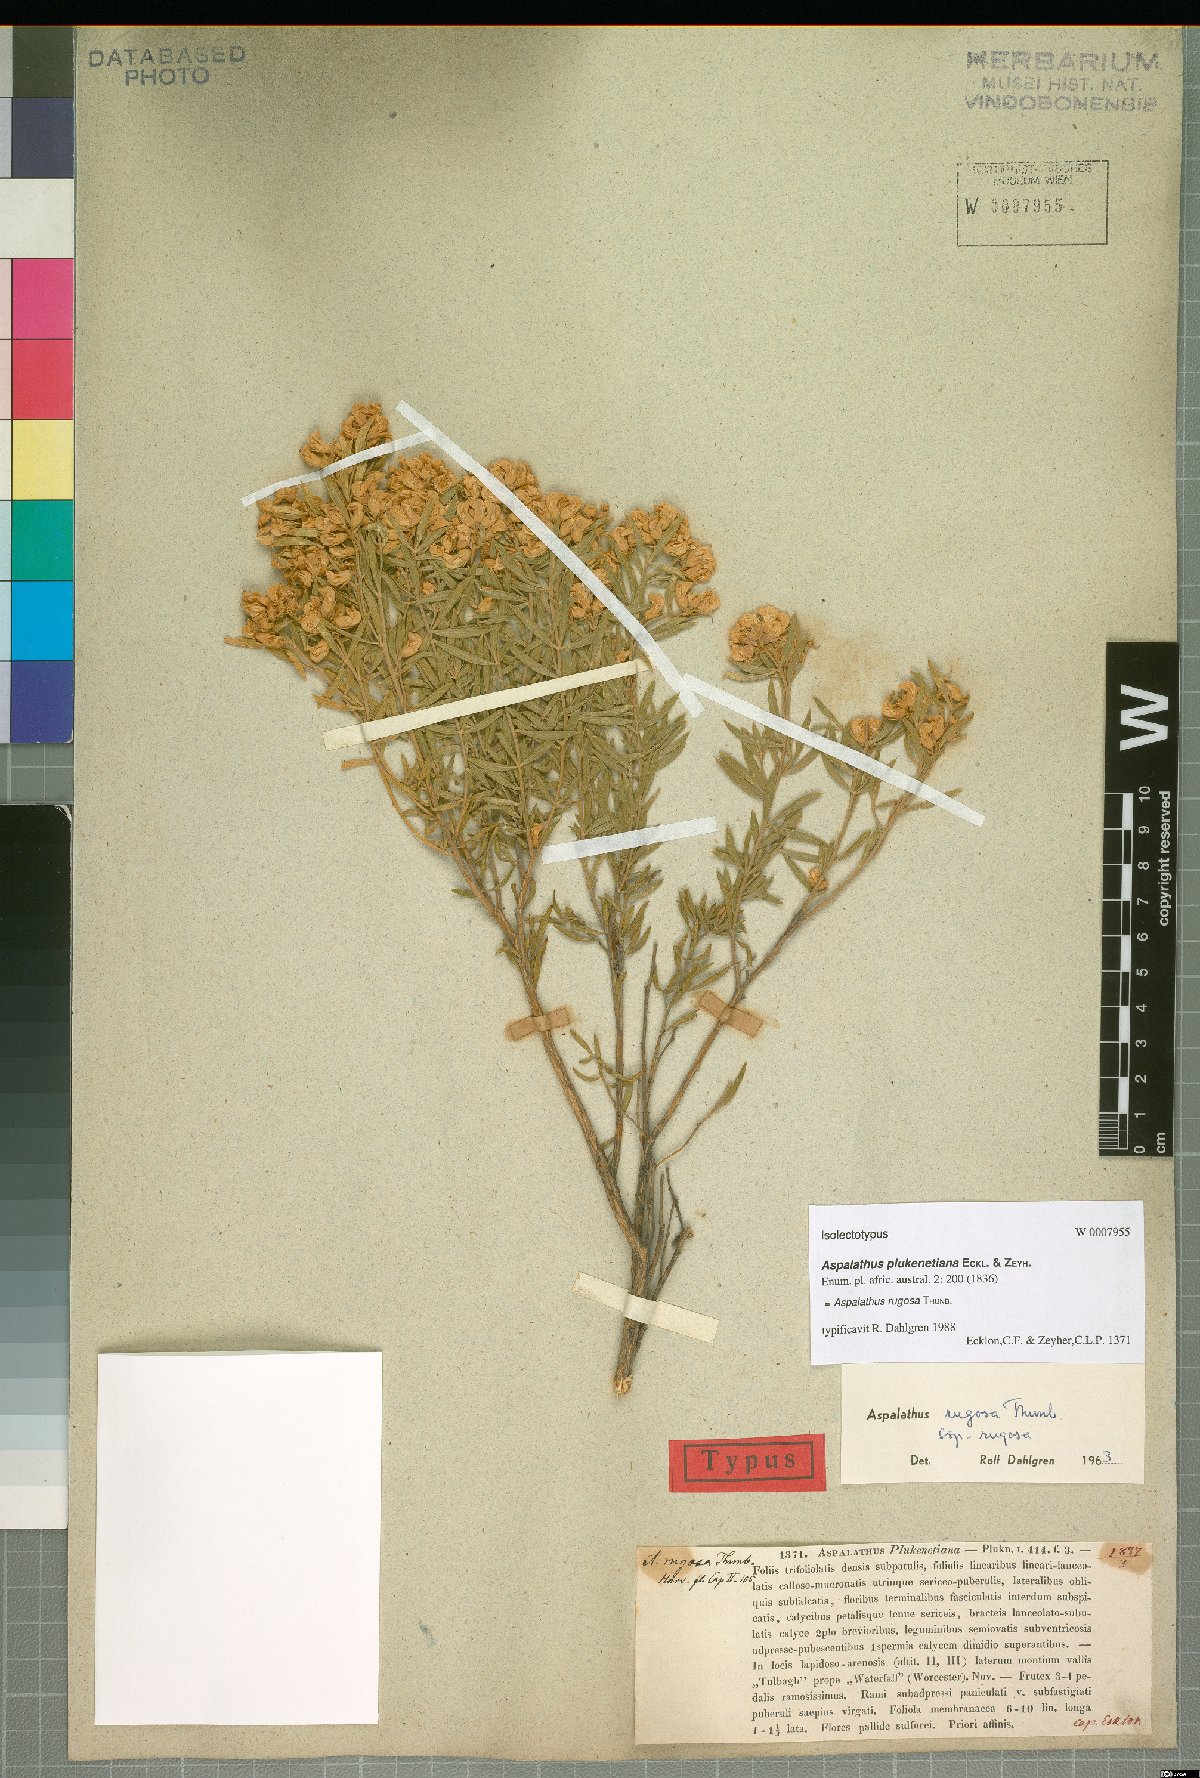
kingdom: Plantae
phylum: Tracheophyta
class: Magnoliopsida
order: Fabales
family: Fabaceae
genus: Aspalathus
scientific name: Aspalathus rugosa
